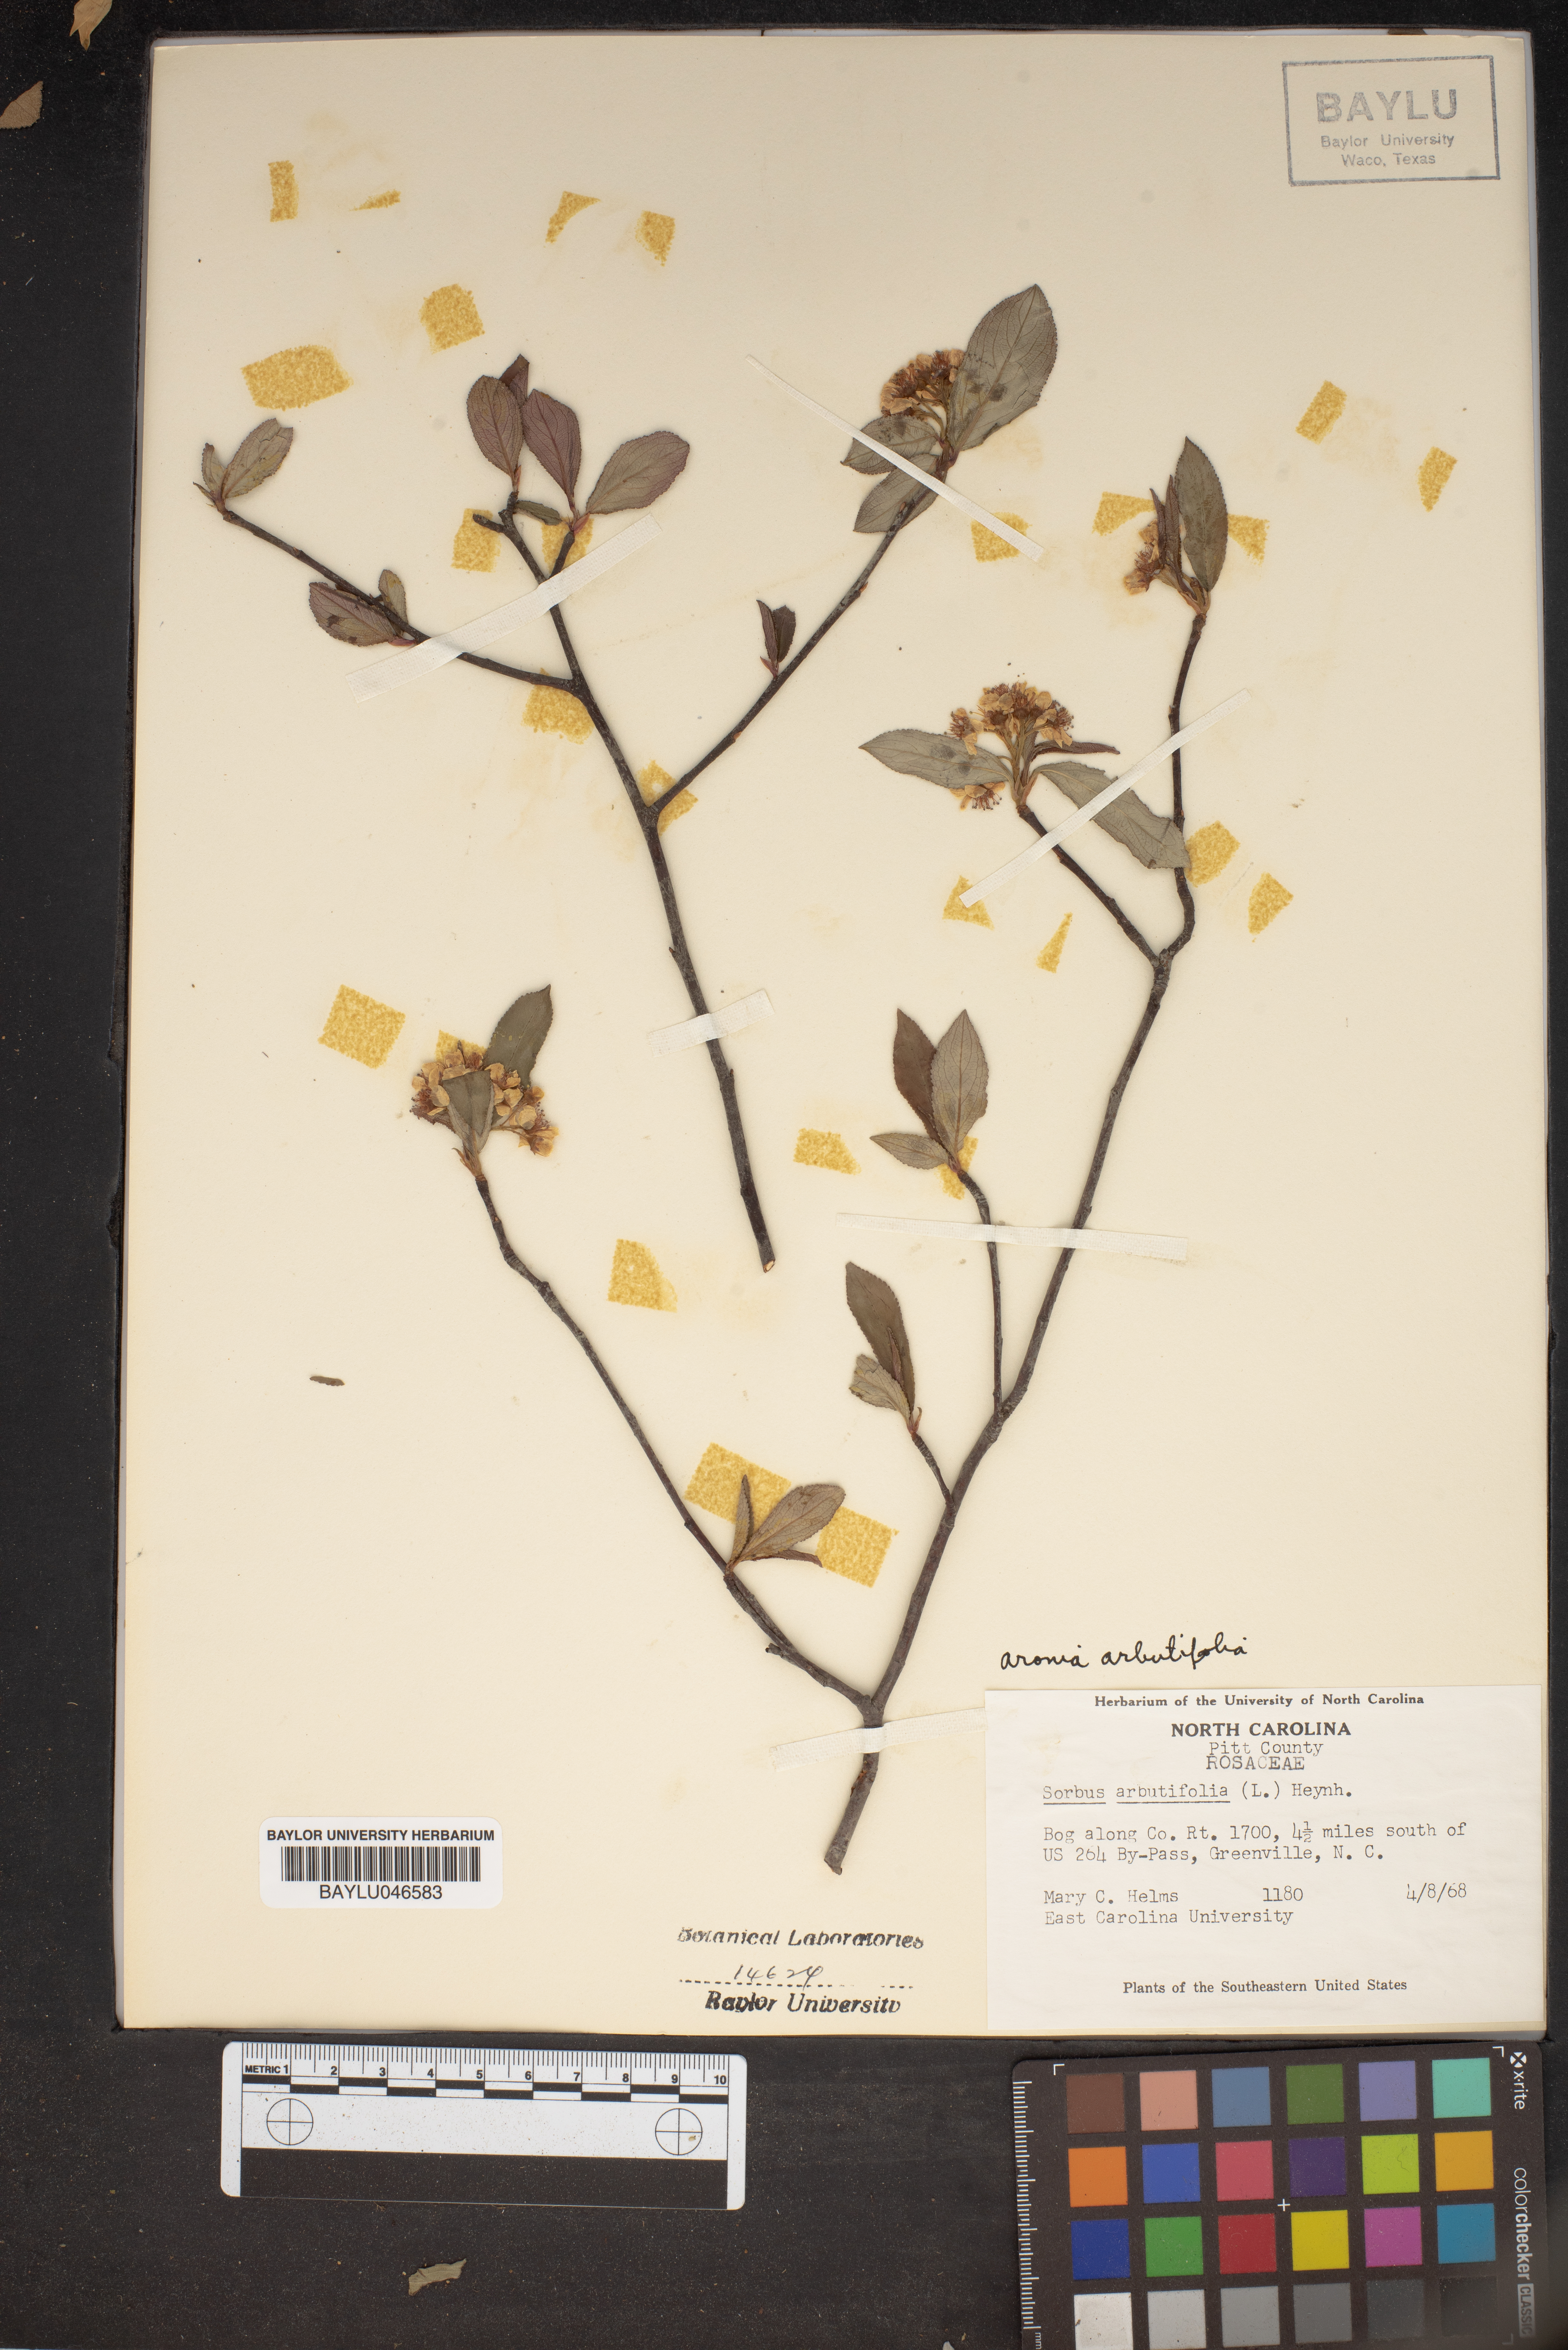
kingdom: Plantae
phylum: Tracheophyta
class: Magnoliopsida
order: Rosales
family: Rosaceae
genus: Aronia
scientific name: Aronia arbutifolia
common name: Red chokeberry
